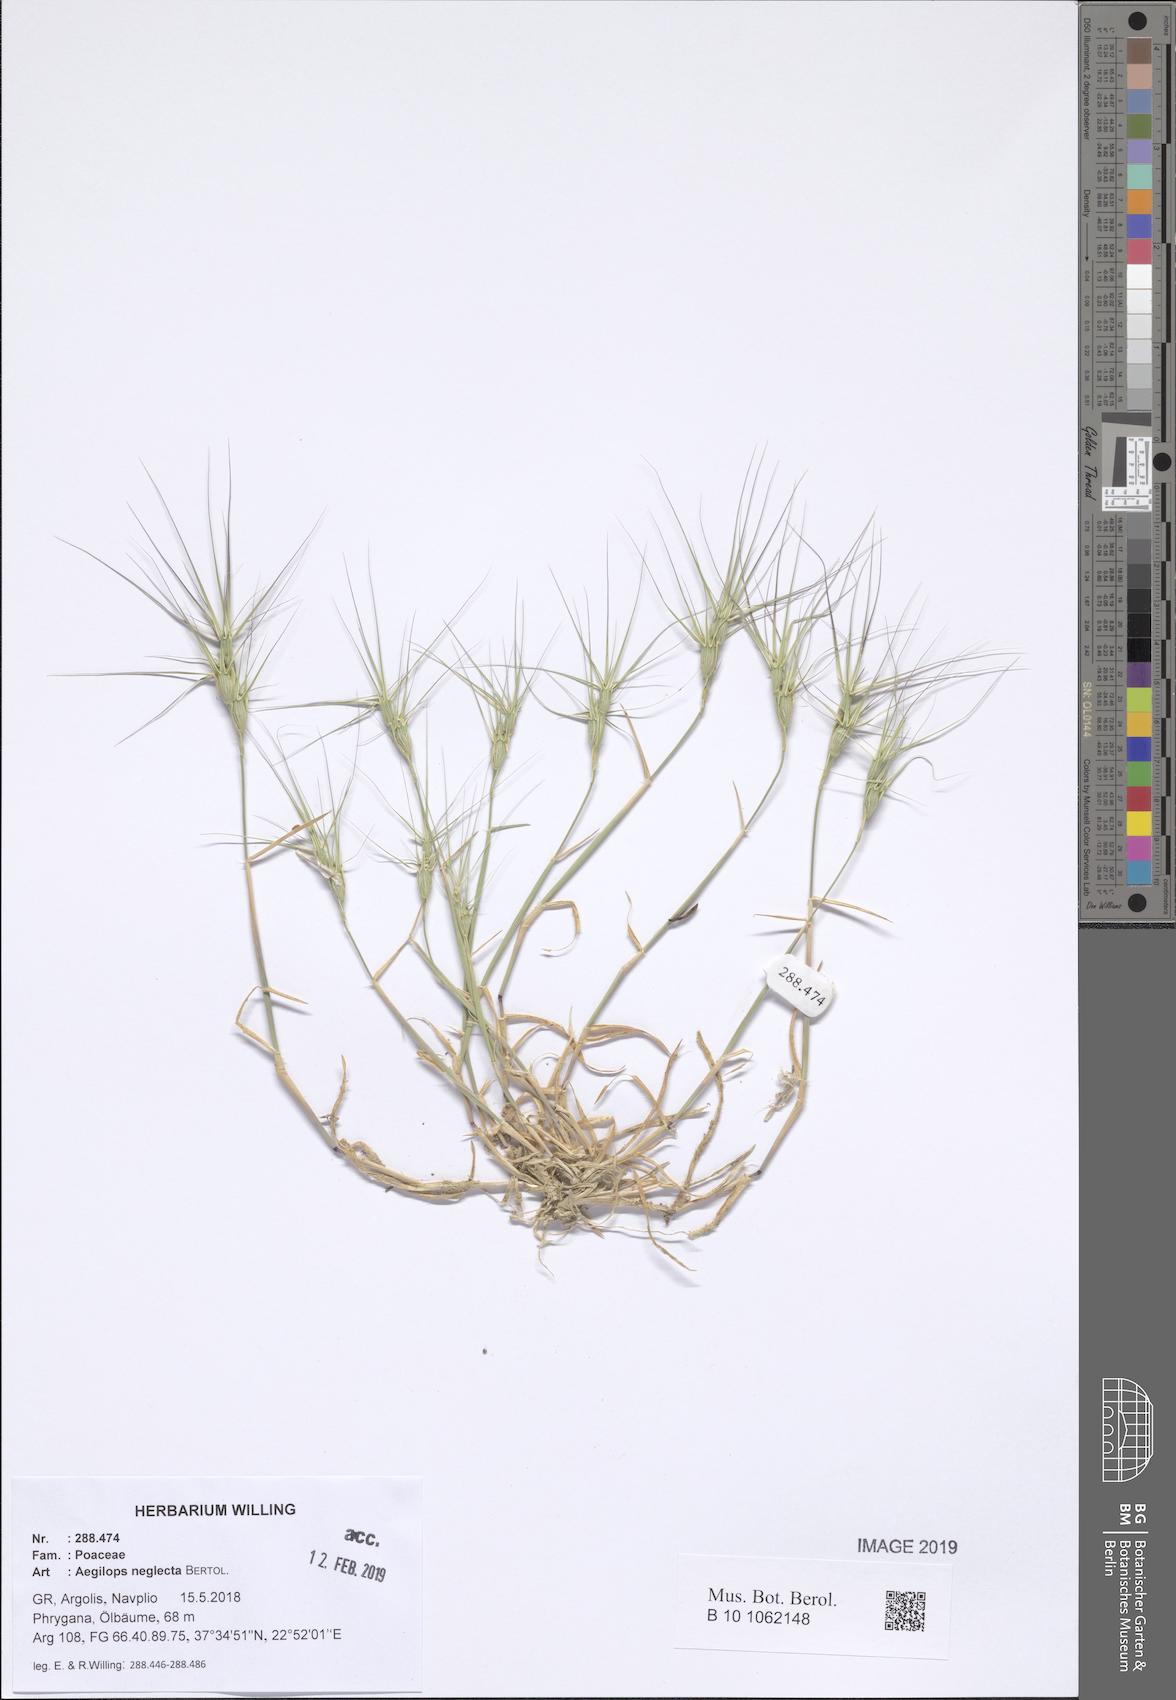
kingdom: Plantae
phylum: Tracheophyta
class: Liliopsida
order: Poales
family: Poaceae
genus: Aegilops
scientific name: Aegilops neglecta
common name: Three-awn goat grass
